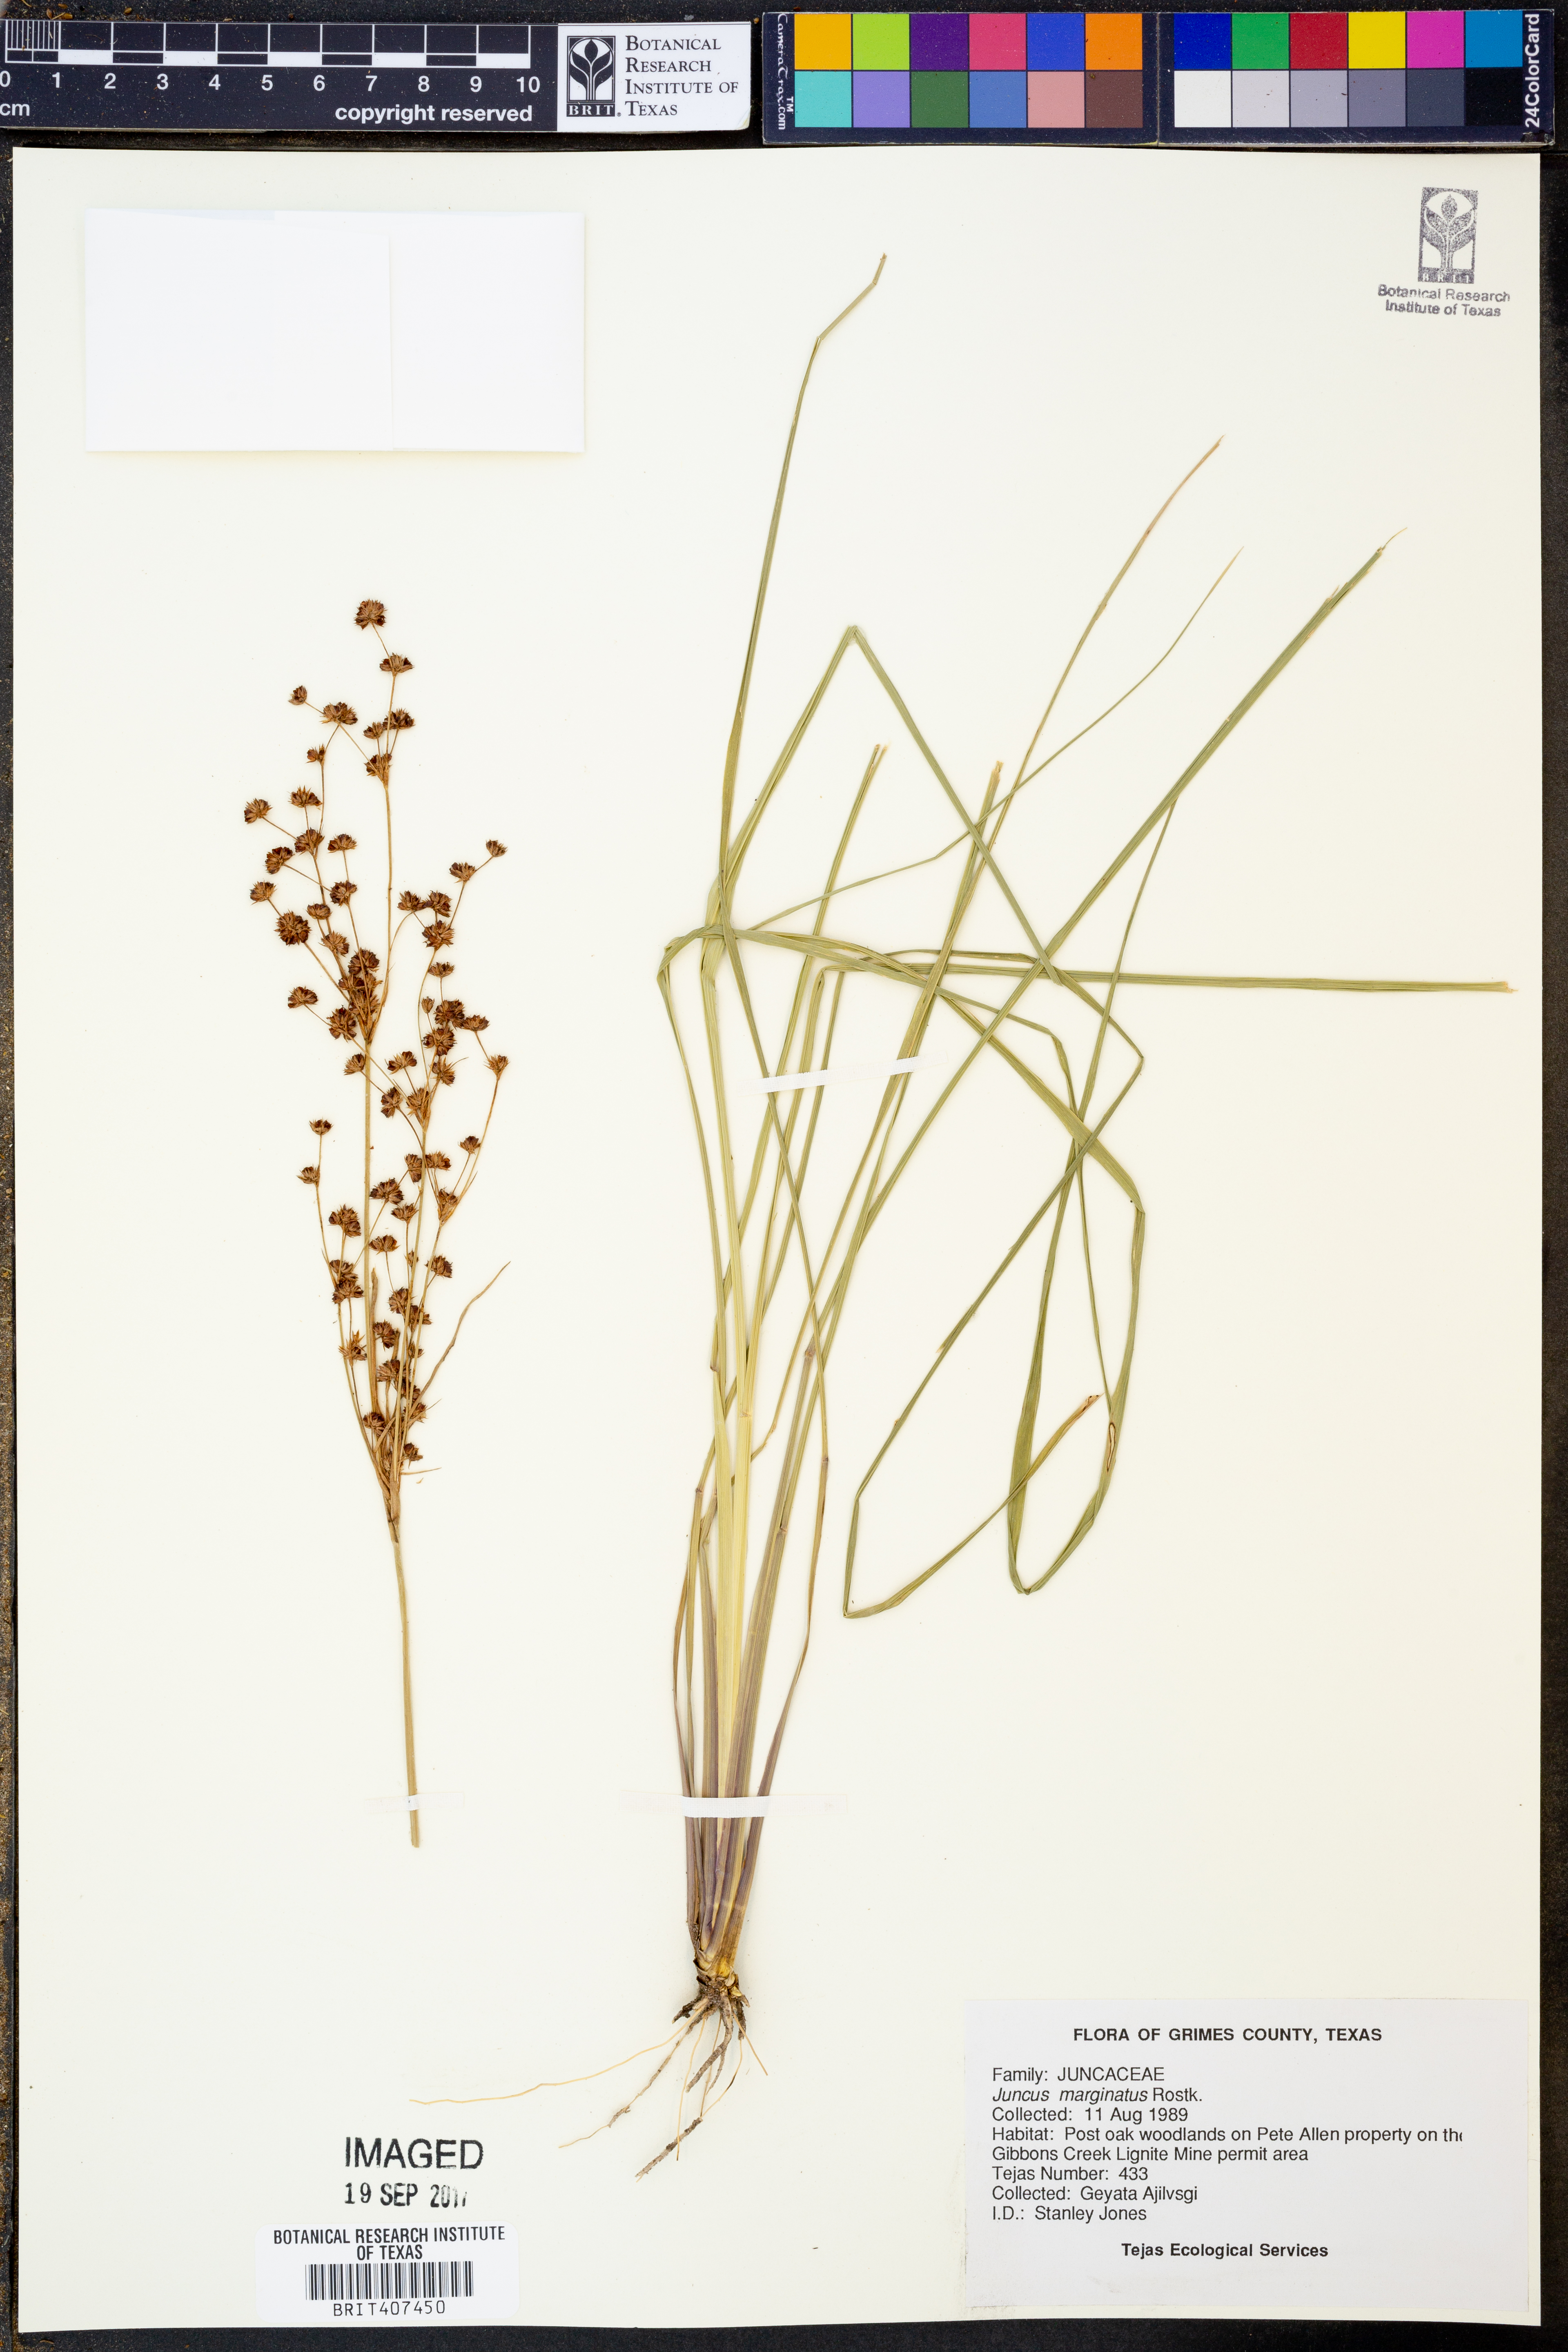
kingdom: Plantae
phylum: Tracheophyta
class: Liliopsida
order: Poales
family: Juncaceae
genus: Juncus
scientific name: Juncus marginatus
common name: Grass-leaf rush
